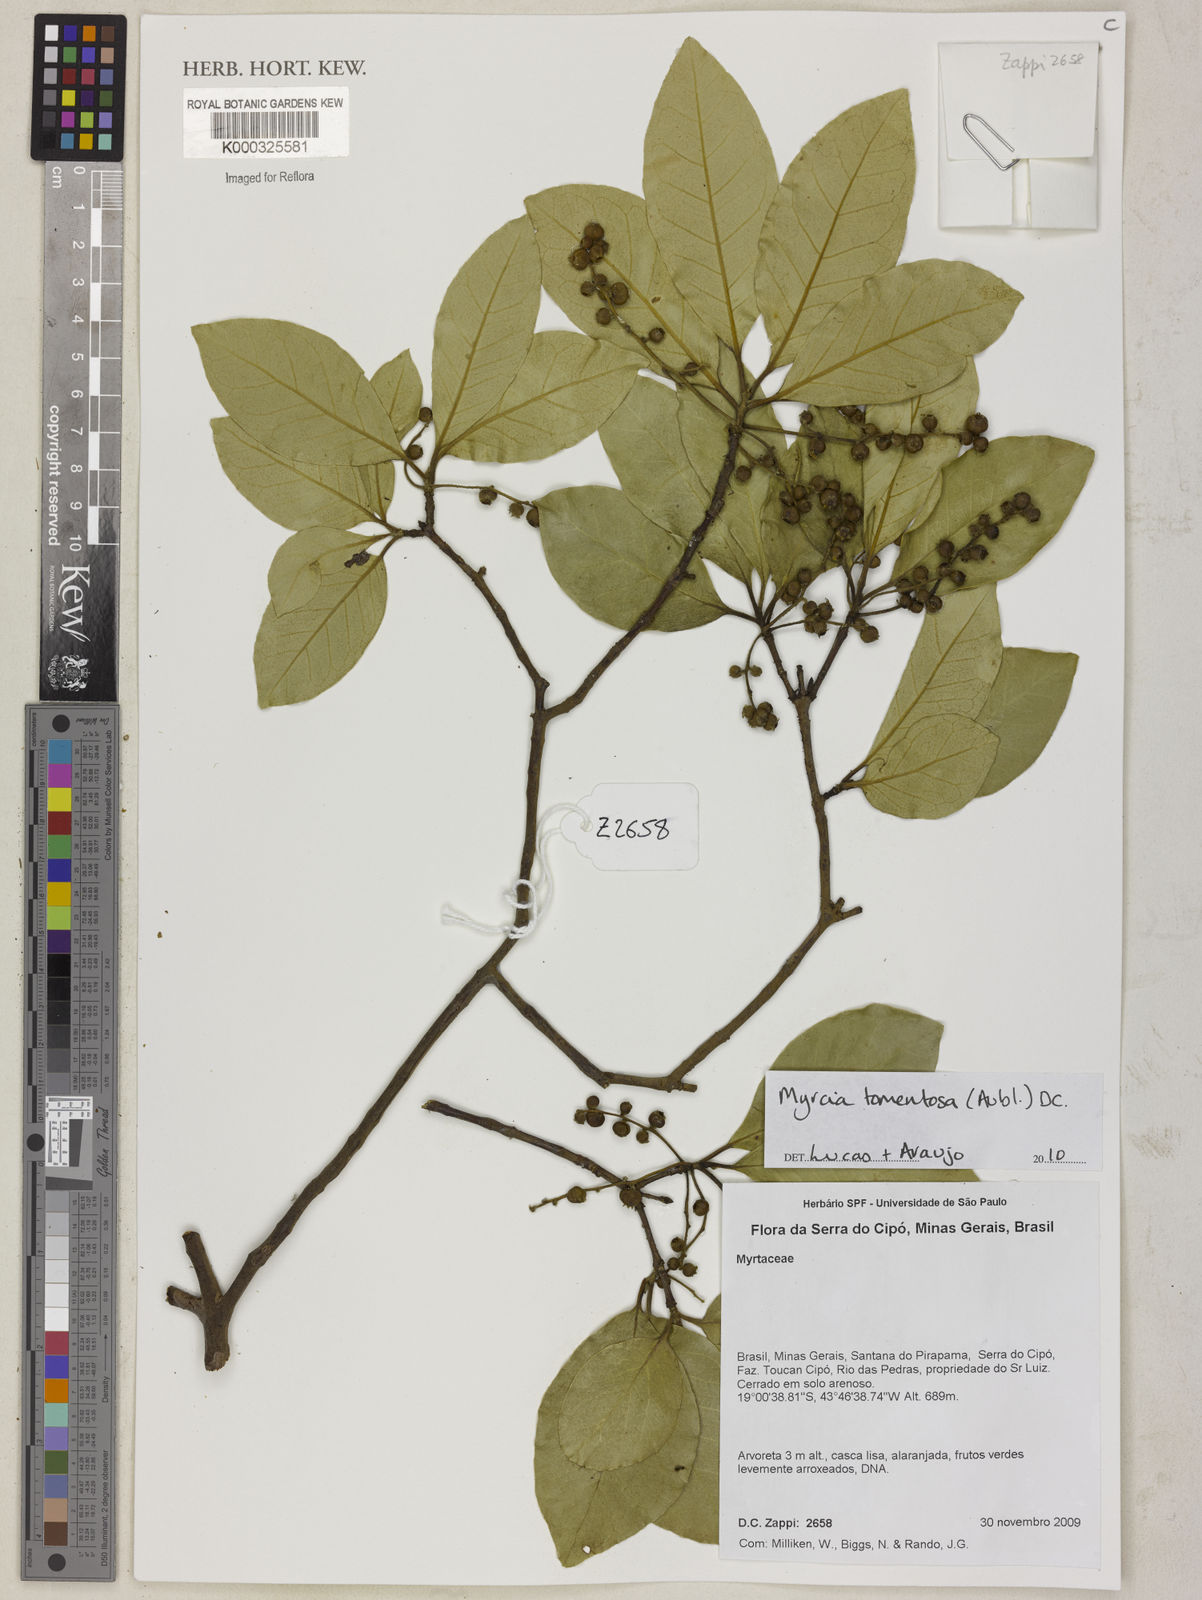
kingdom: Plantae
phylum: Tracheophyta
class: Magnoliopsida
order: Myrtales
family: Myrtaceae
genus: Myrcia
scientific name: Myrcia tomentosa
